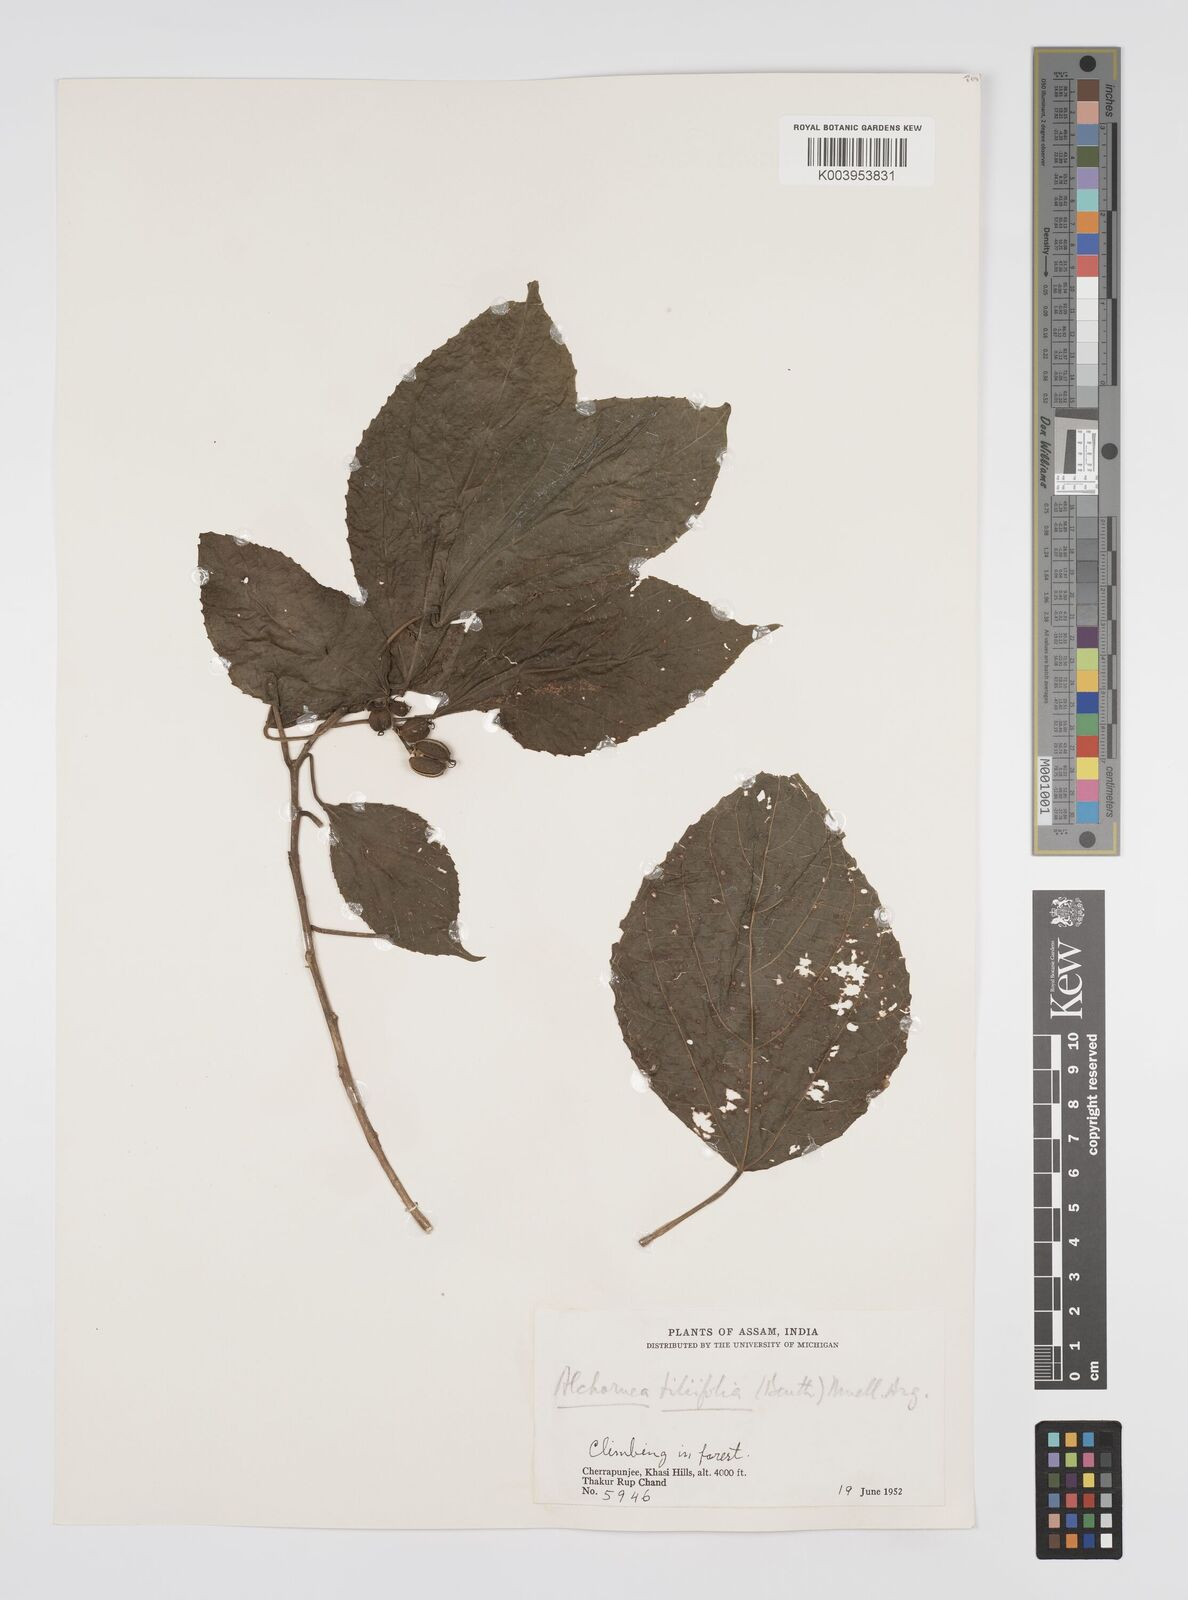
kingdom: Plantae
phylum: Tracheophyta
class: Magnoliopsida
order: Malpighiales
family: Euphorbiaceae
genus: Alchornea
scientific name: Alchornea tiliifolia
